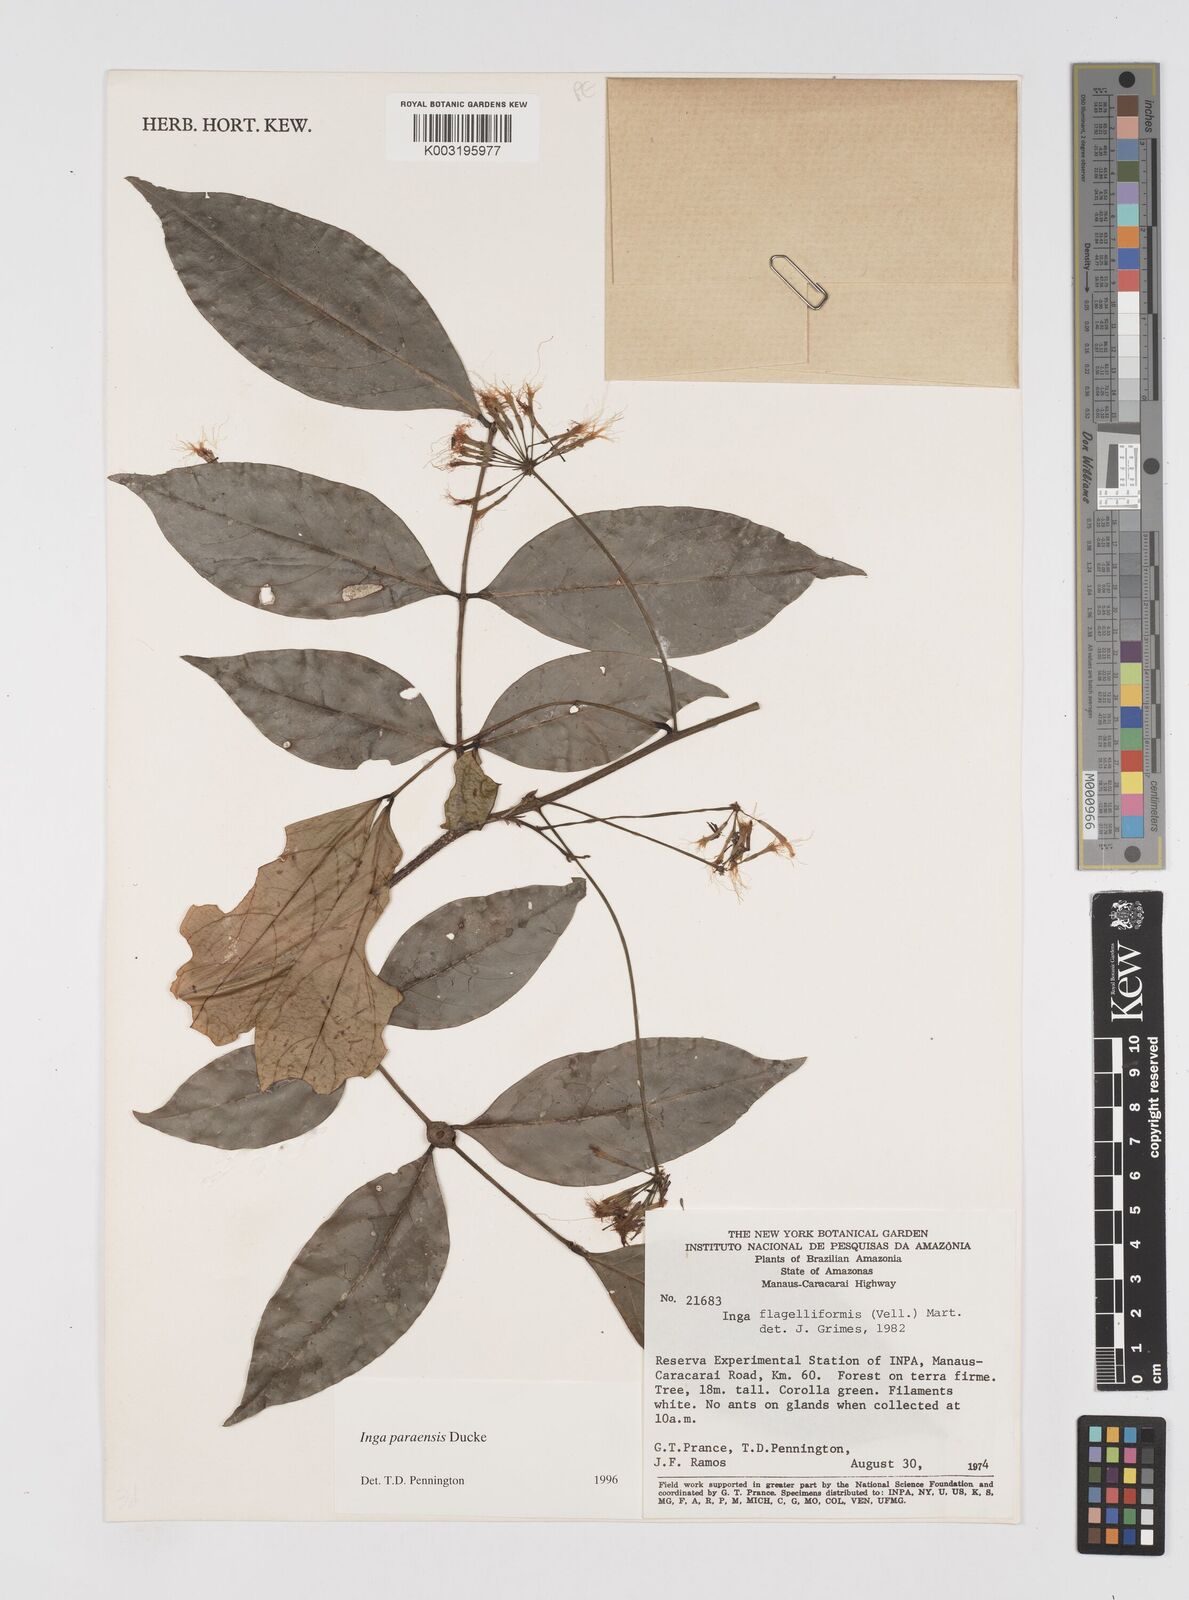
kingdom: Plantae
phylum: Tracheophyta
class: Magnoliopsida
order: Fabales
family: Fabaceae
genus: Inga
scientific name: Inga paraensis
